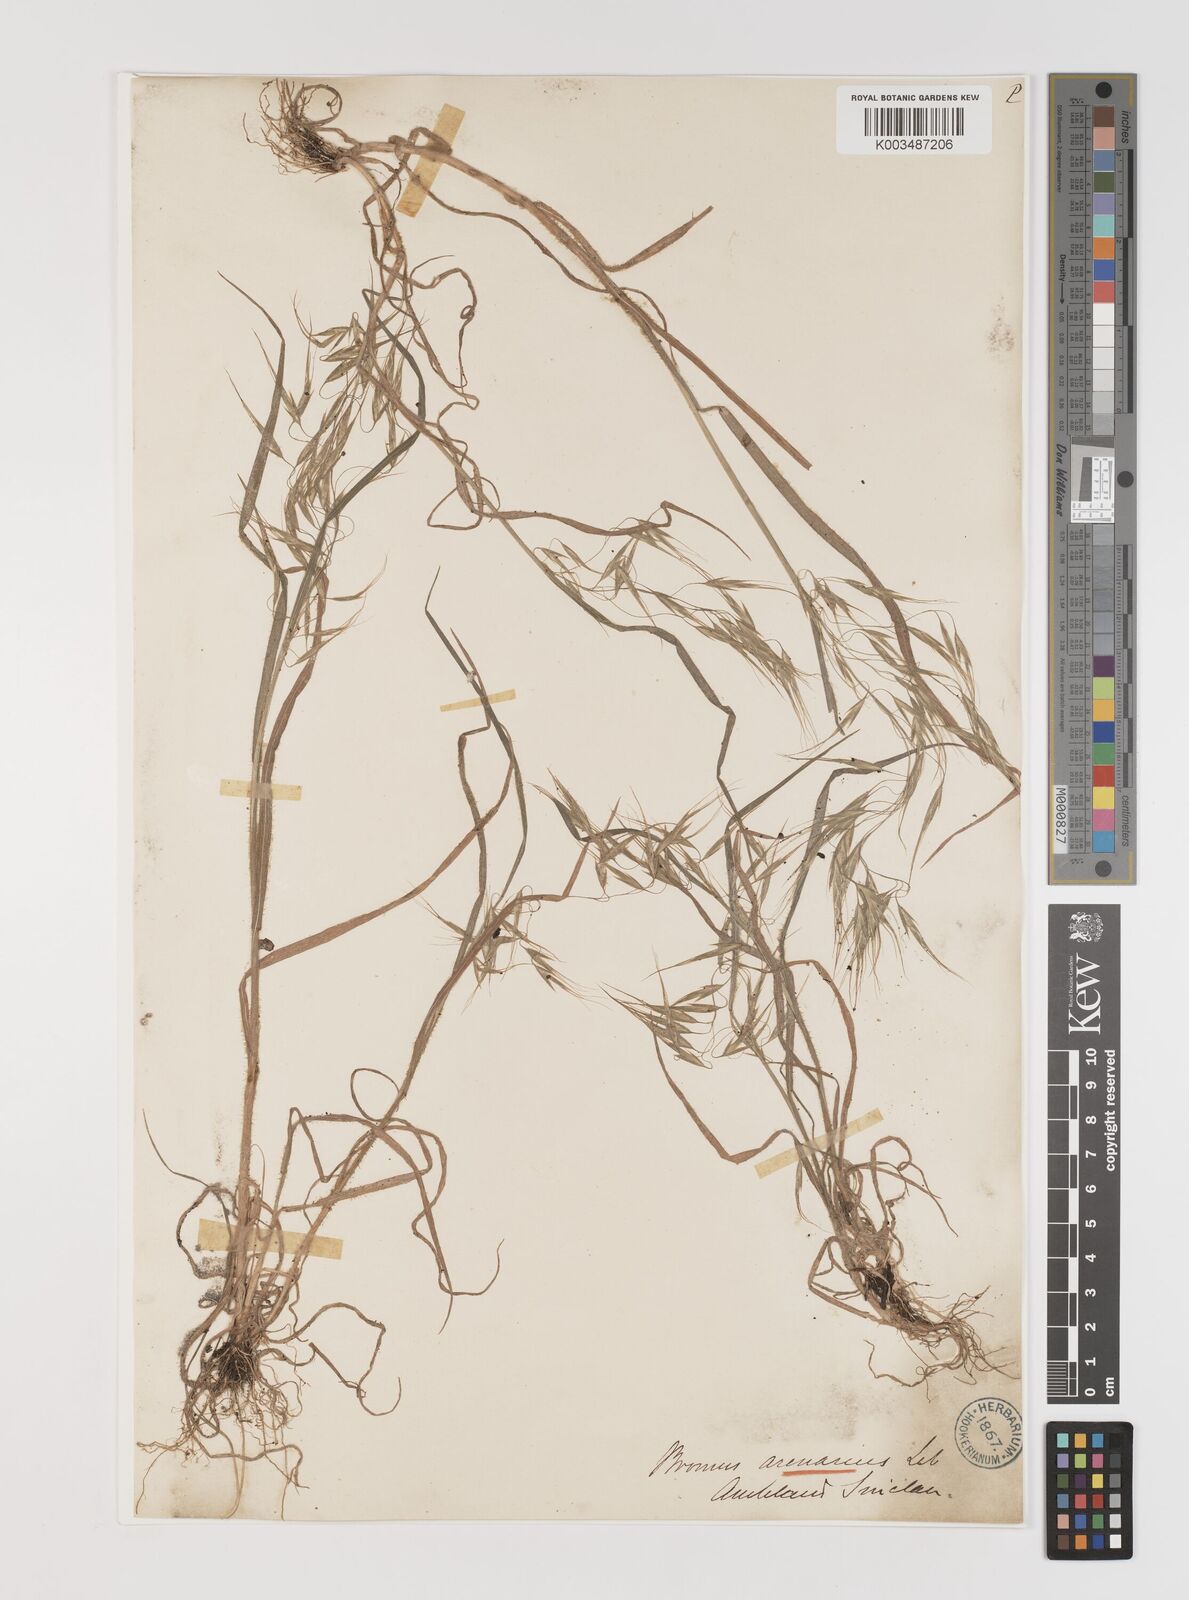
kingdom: Plantae
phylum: Tracheophyta
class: Liliopsida
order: Poales
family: Poaceae
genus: Bromus
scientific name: Bromus arenarius
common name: Australian brome
